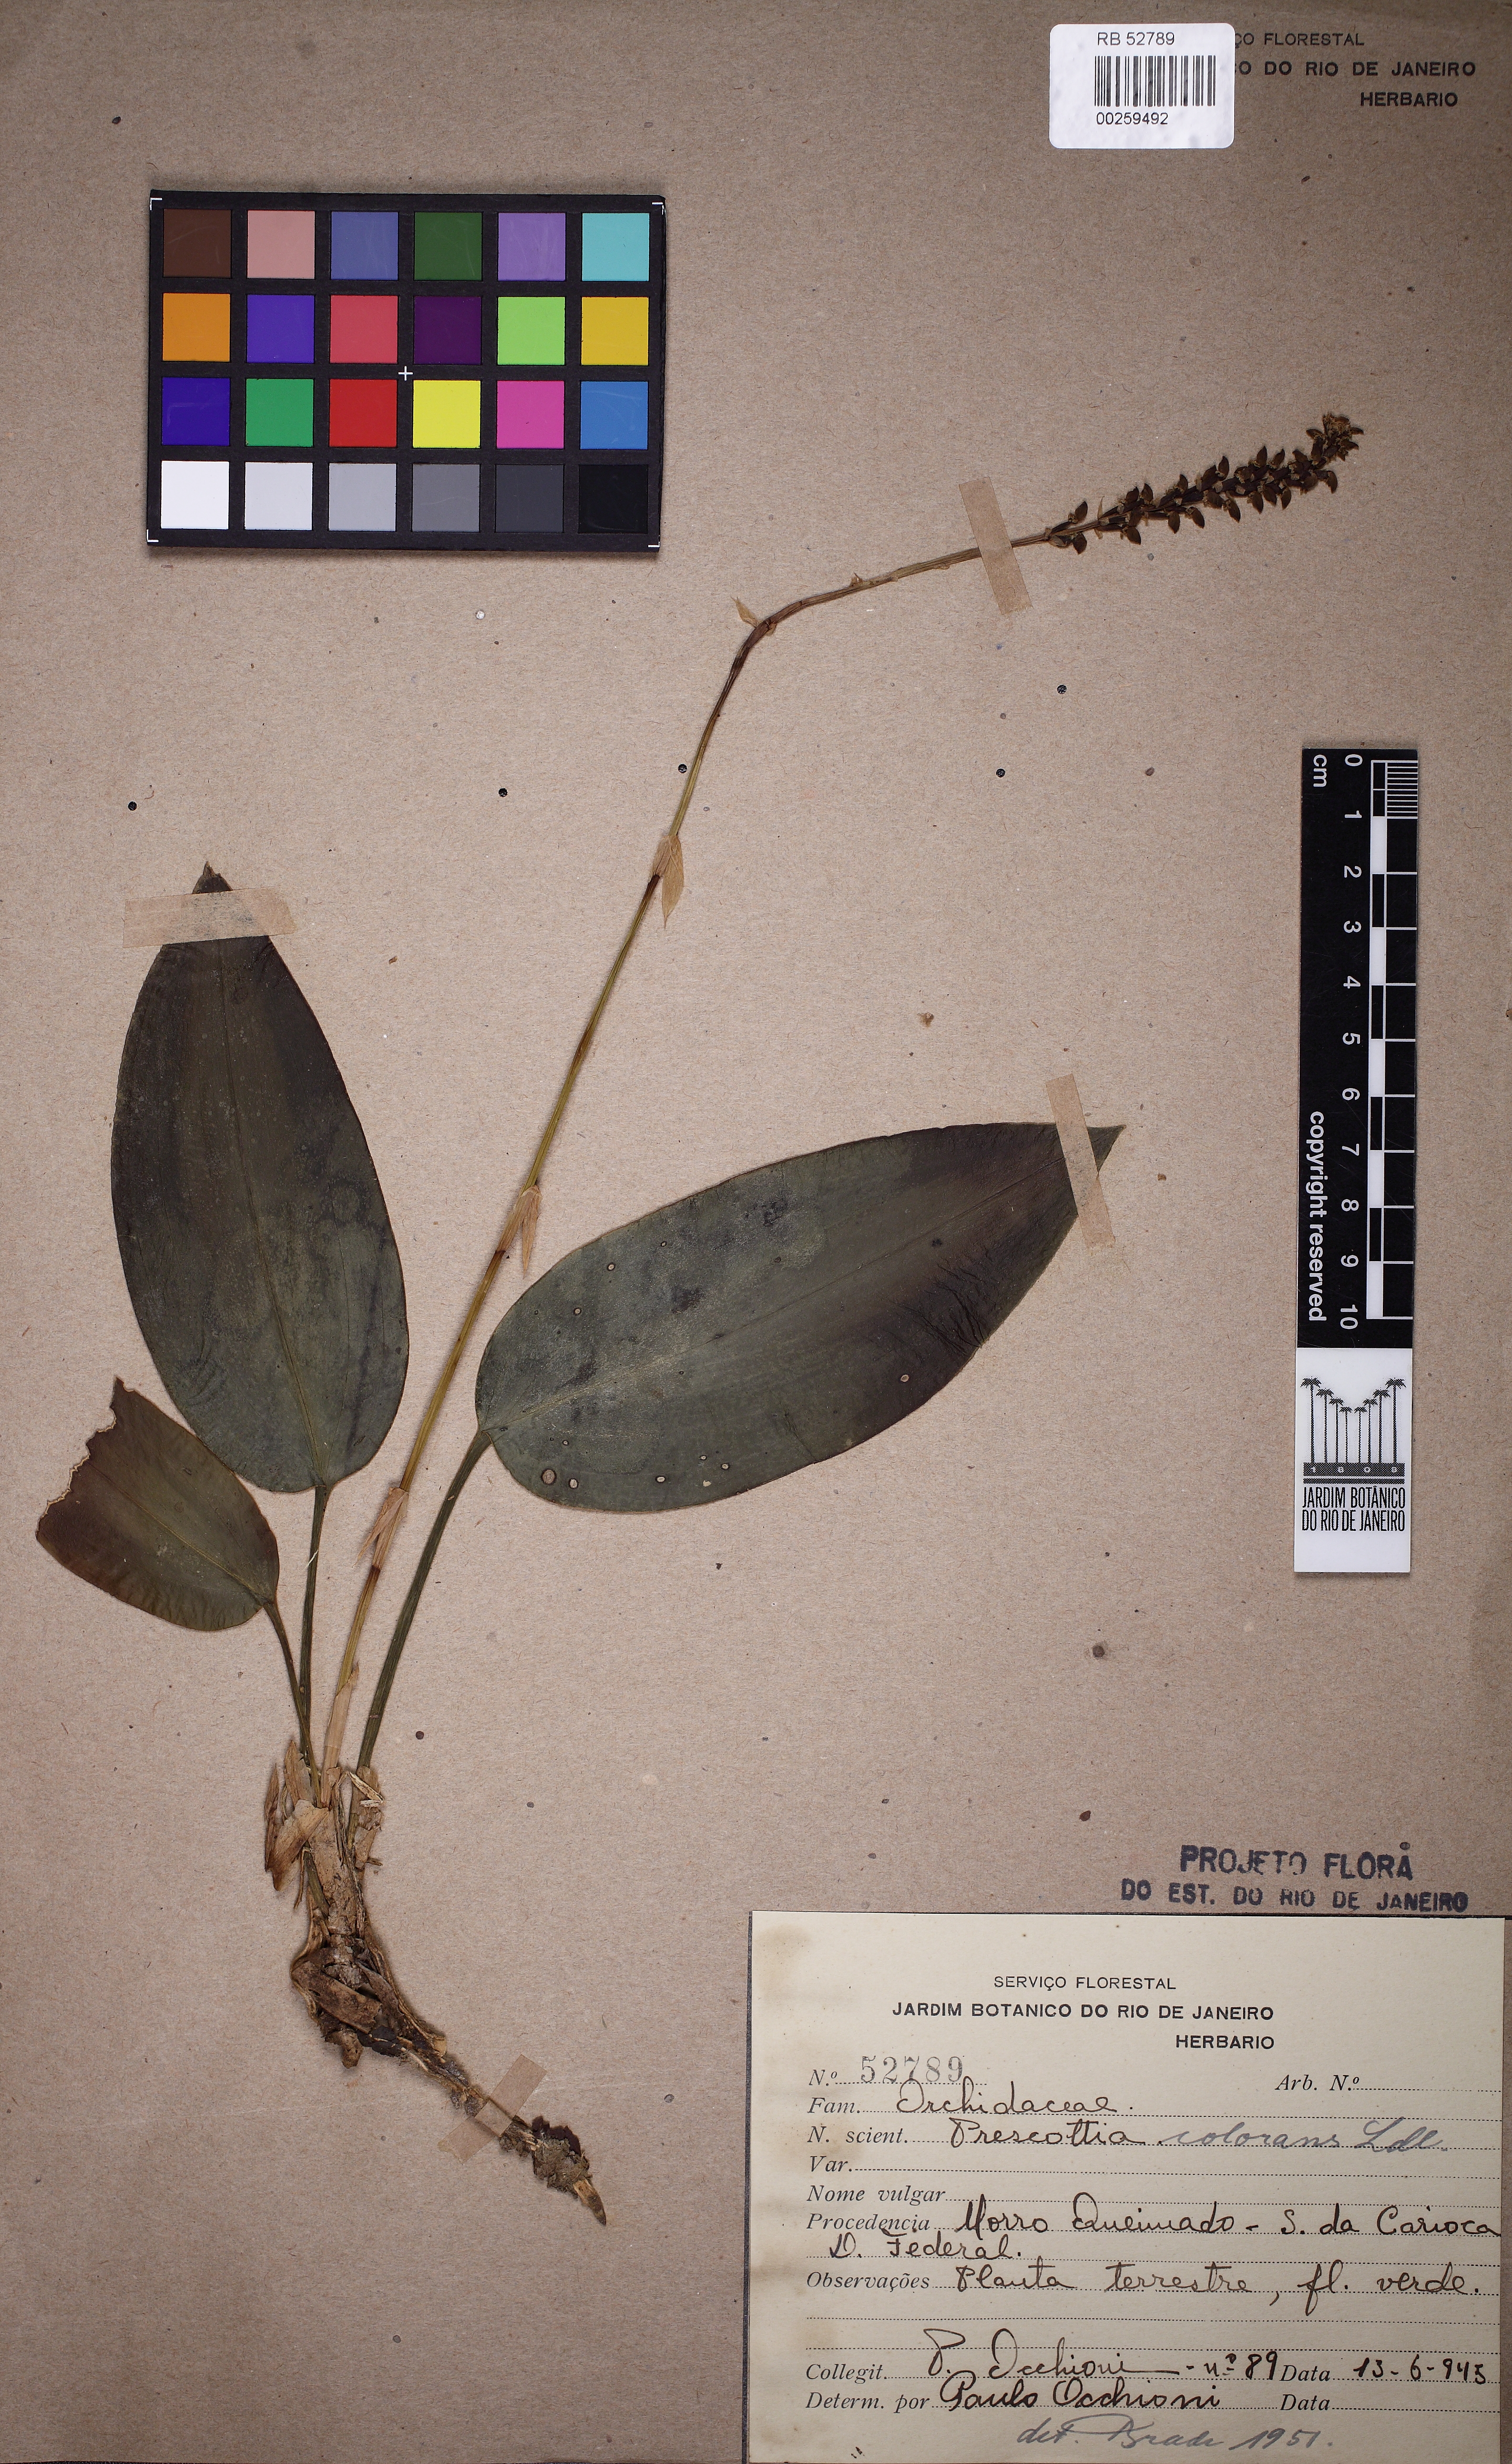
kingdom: Plantae
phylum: Tracheophyta
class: Liliopsida
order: Asparagales
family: Orchidaceae
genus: Prescottia
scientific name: Prescottia stachyodes
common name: Mountain prescott orchid
